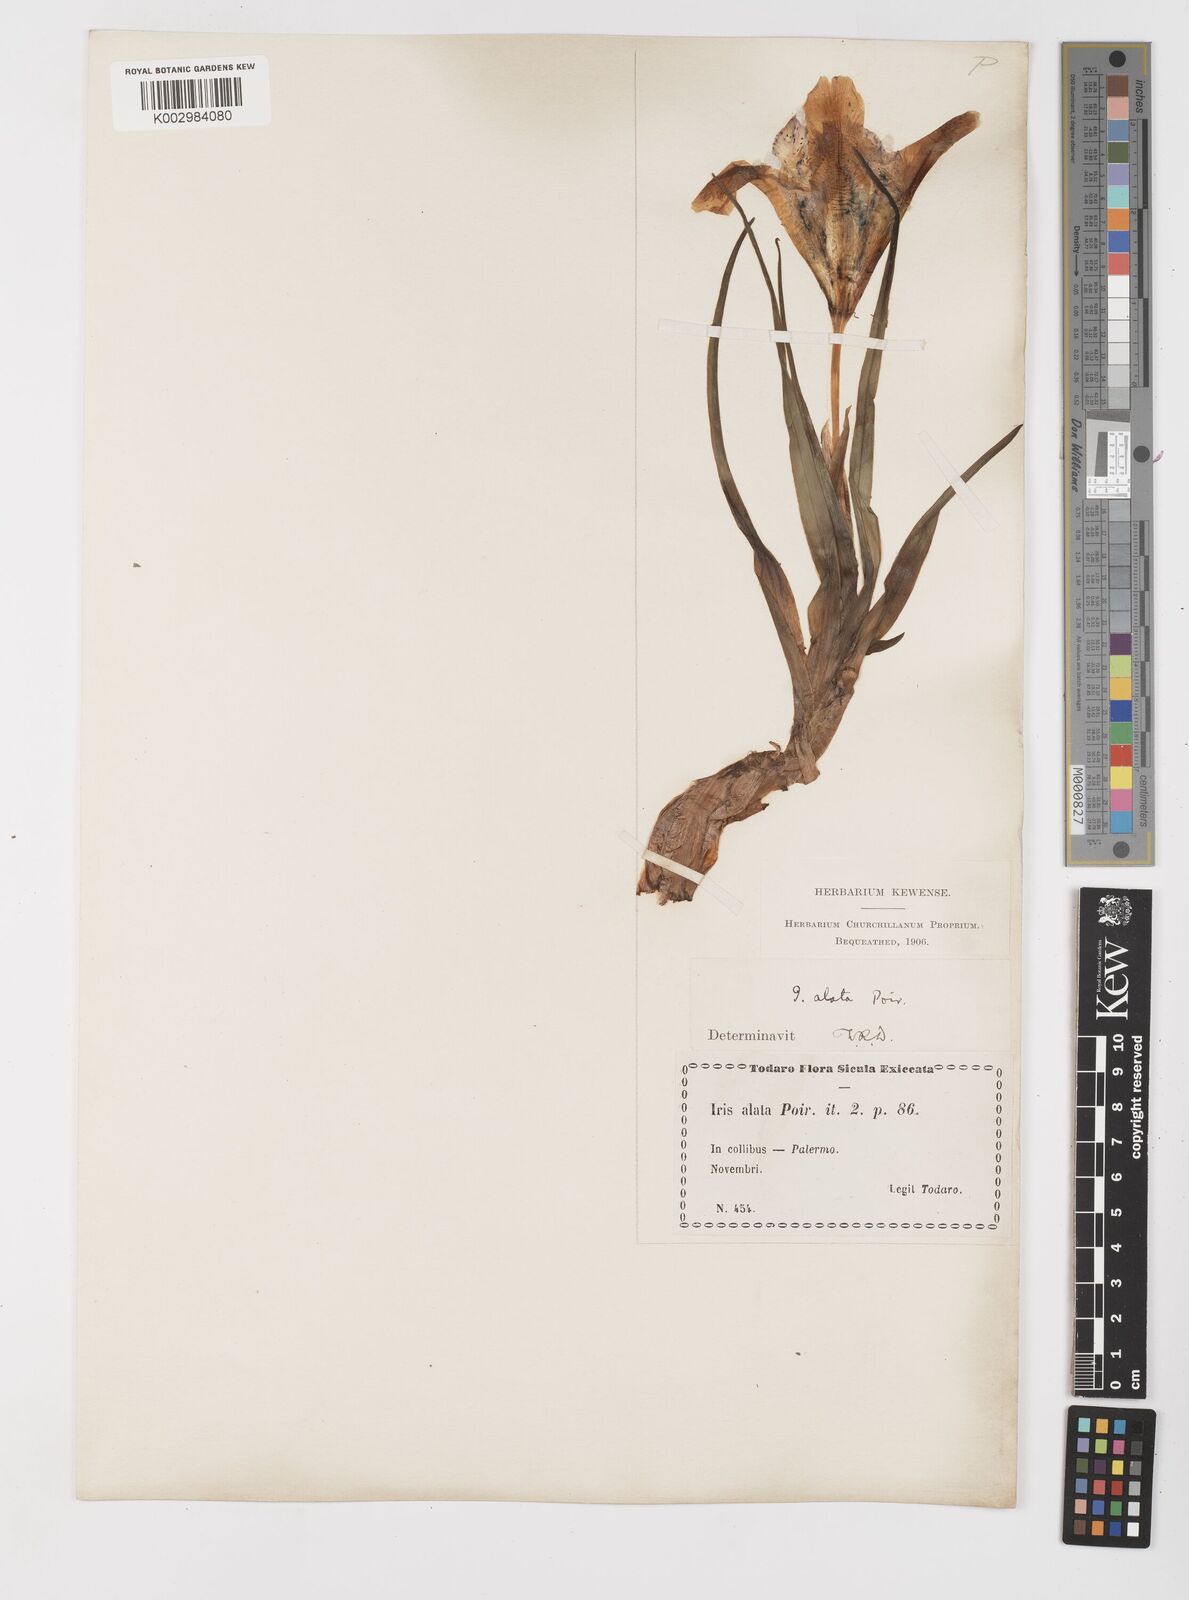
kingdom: Plantae
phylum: Tracheophyta
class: Liliopsida
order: Asparagales
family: Iridaceae
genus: Iris
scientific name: Iris planifolia
